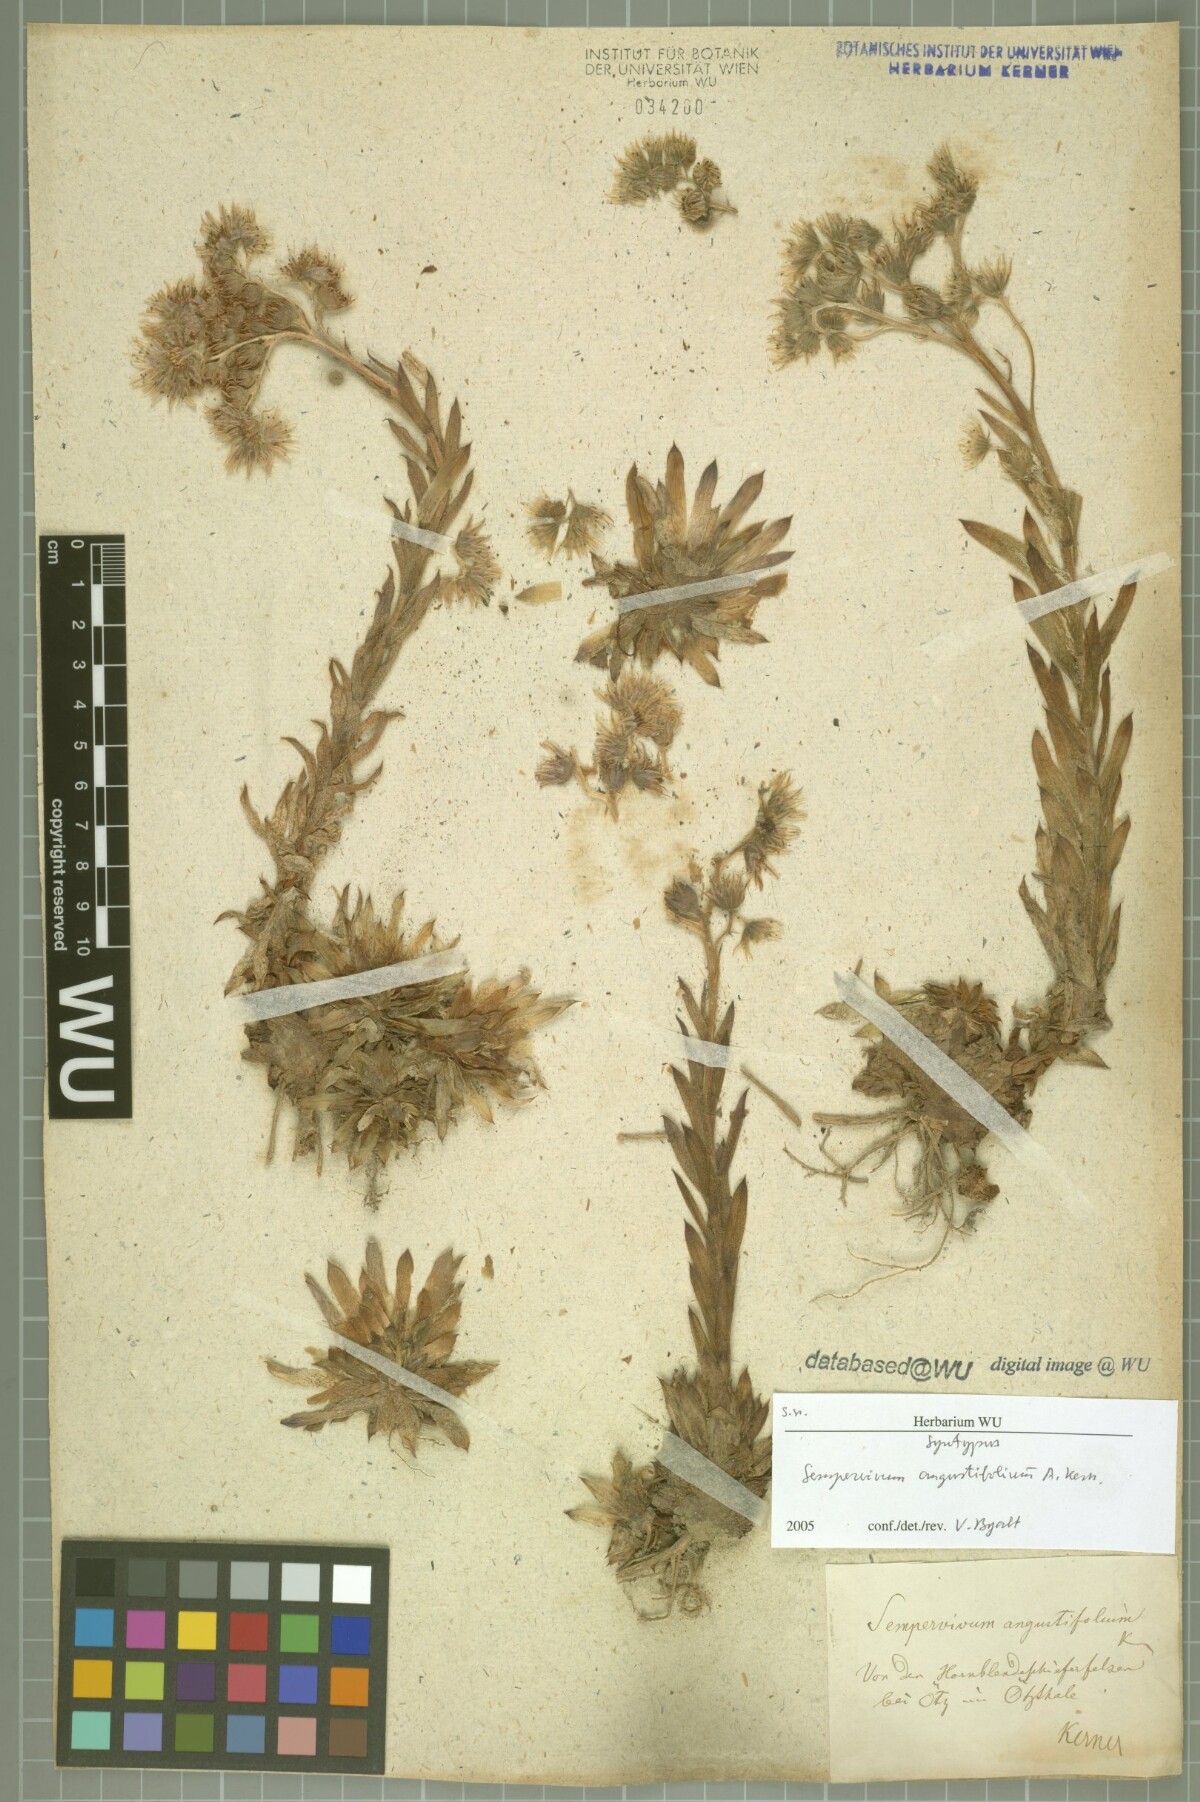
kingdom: Plantae
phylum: Tracheophyta
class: Magnoliopsida
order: Saxifragales
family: Crassulaceae
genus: Sempervivum
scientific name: Sempervivum alatum
